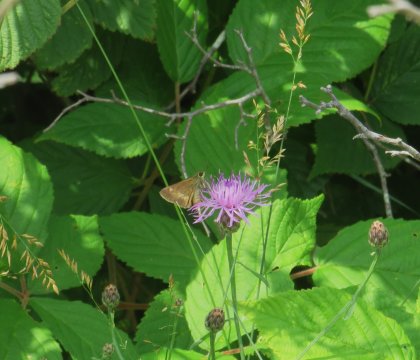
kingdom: Animalia
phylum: Arthropoda
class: Insecta
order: Lepidoptera
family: Hesperiidae
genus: Polites
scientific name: Polites egeremet
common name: Northern Broken-Dash
